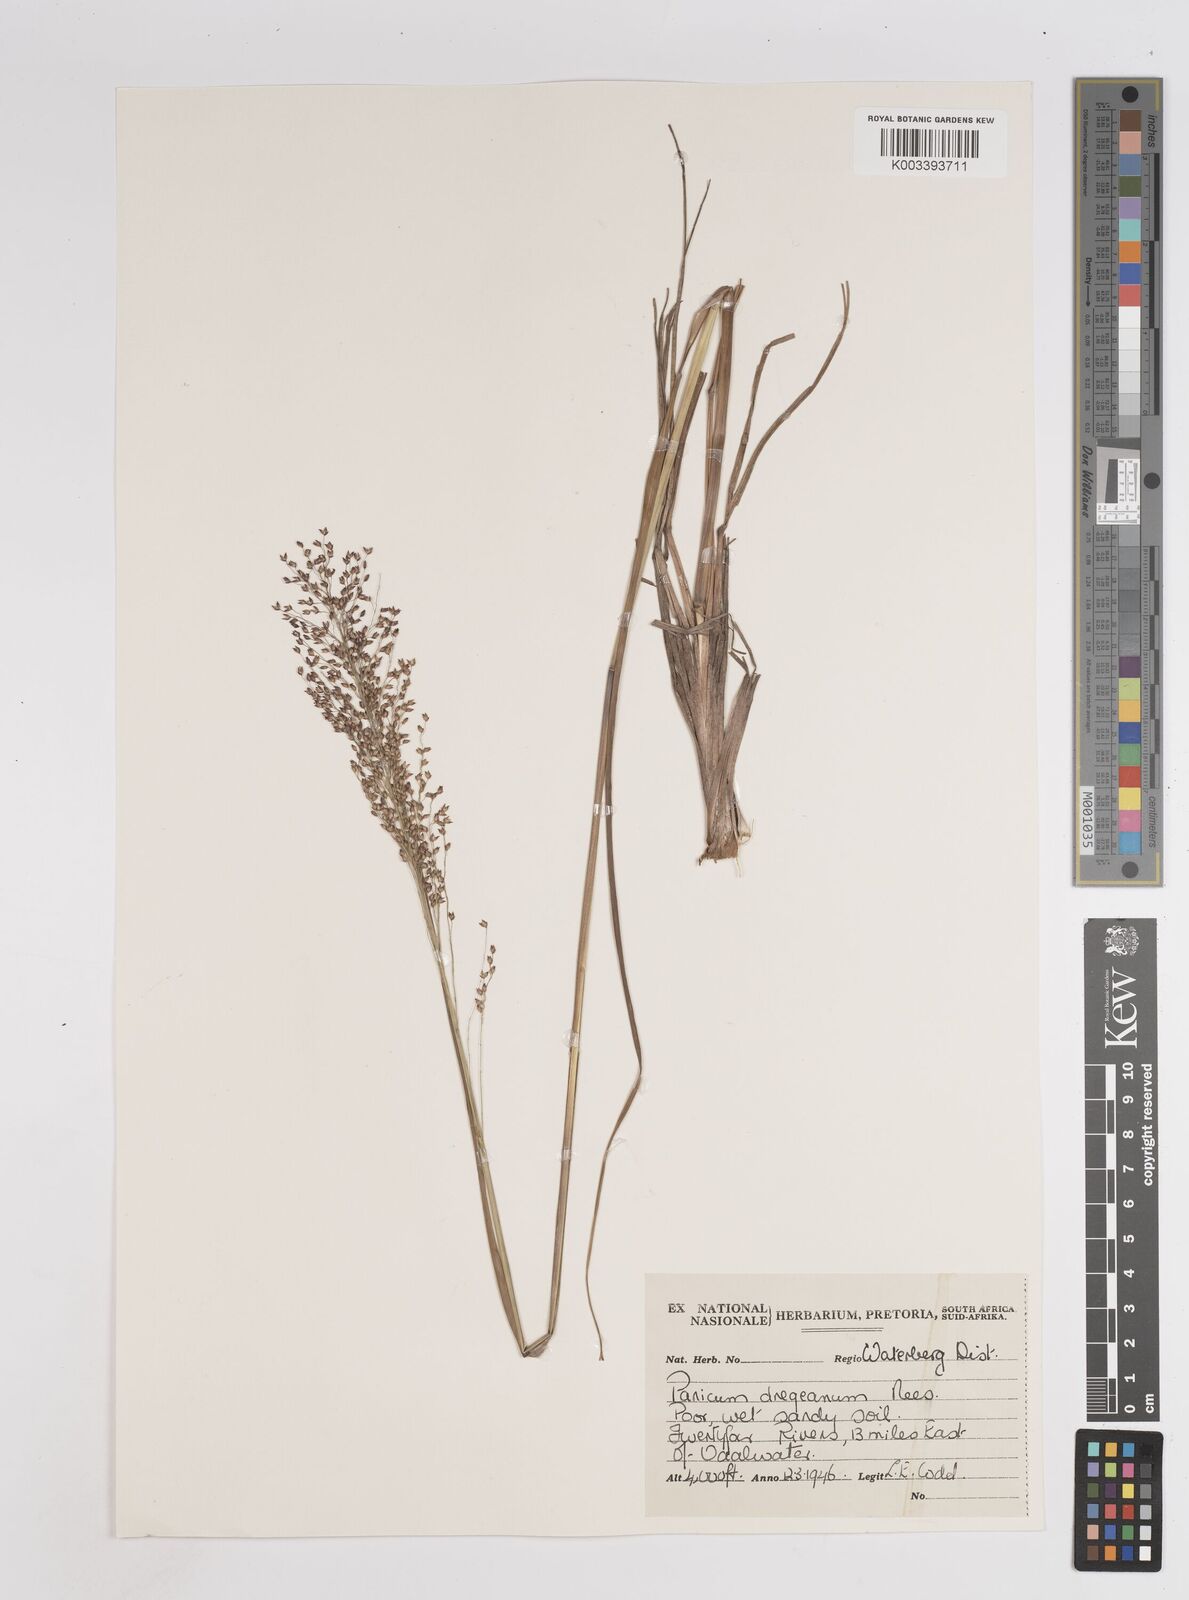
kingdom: Plantae
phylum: Tracheophyta
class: Liliopsida
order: Poales
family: Poaceae
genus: Panicum
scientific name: Panicum dregeanum
